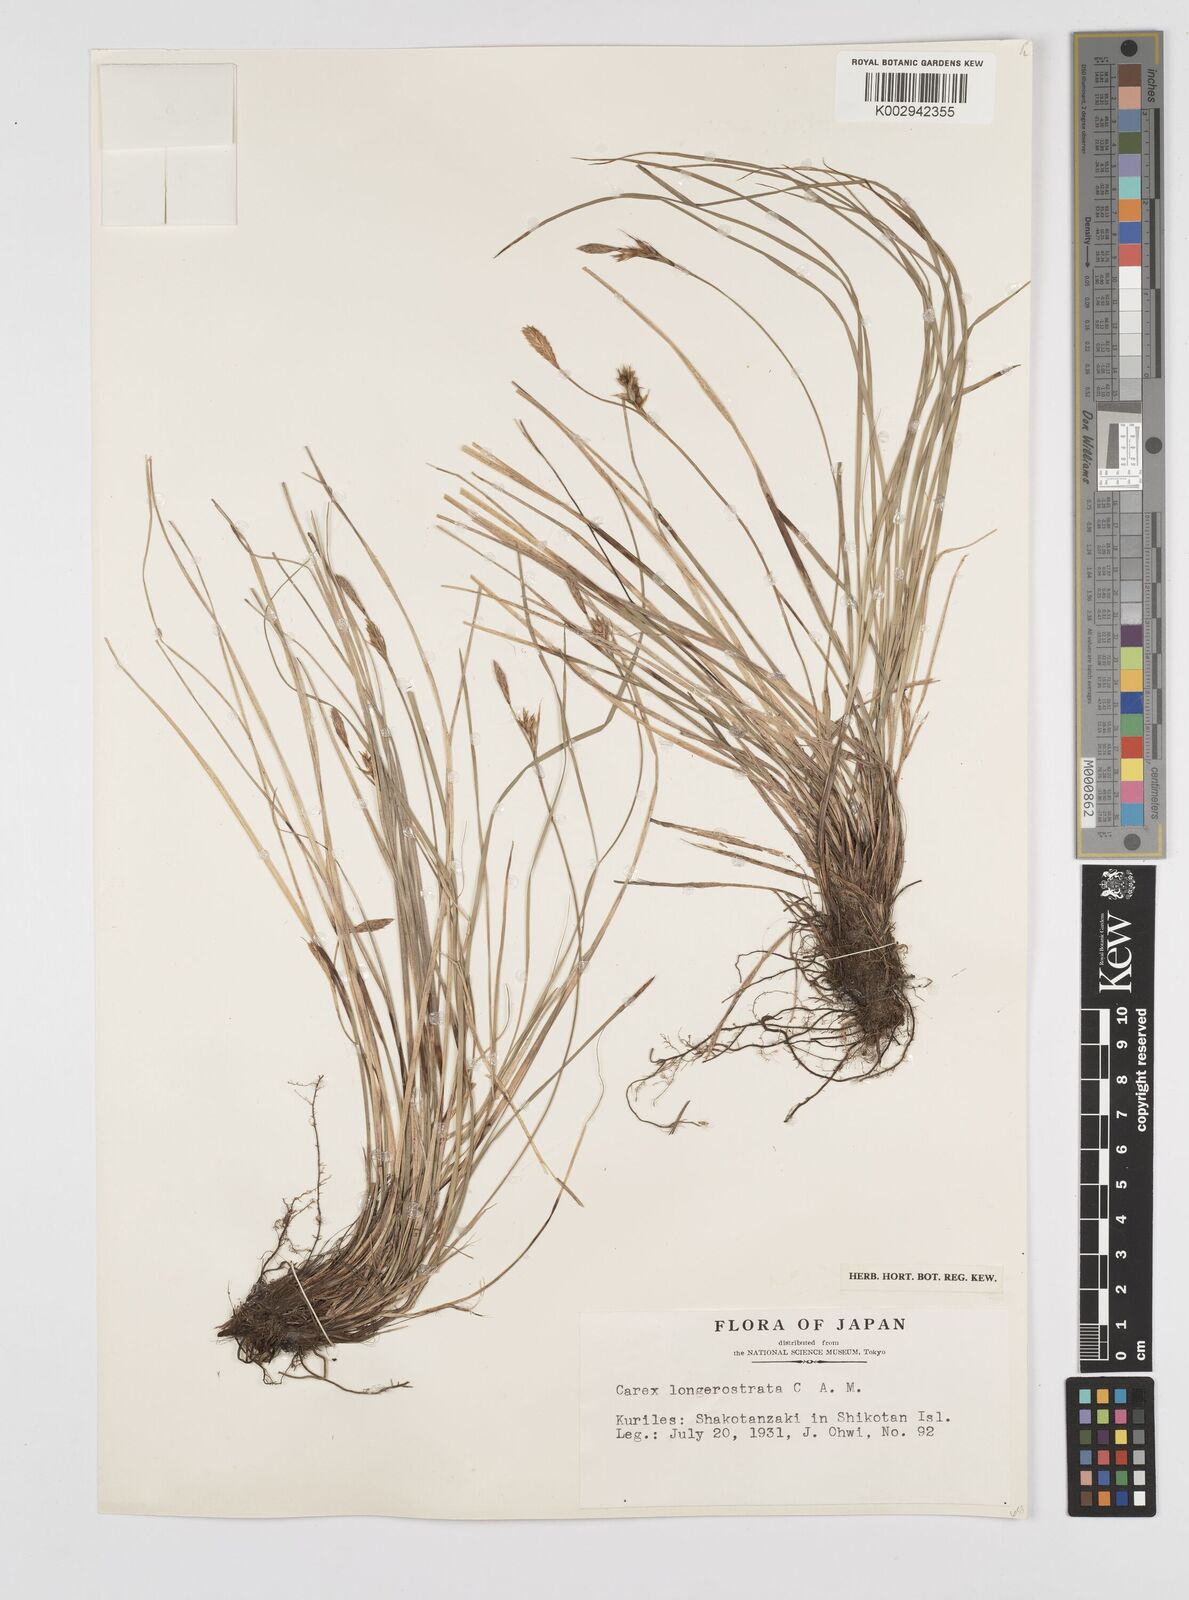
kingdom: Plantae
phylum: Tracheophyta
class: Liliopsida
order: Poales
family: Cyperaceae
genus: Carex
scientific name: Carex longerostrata
